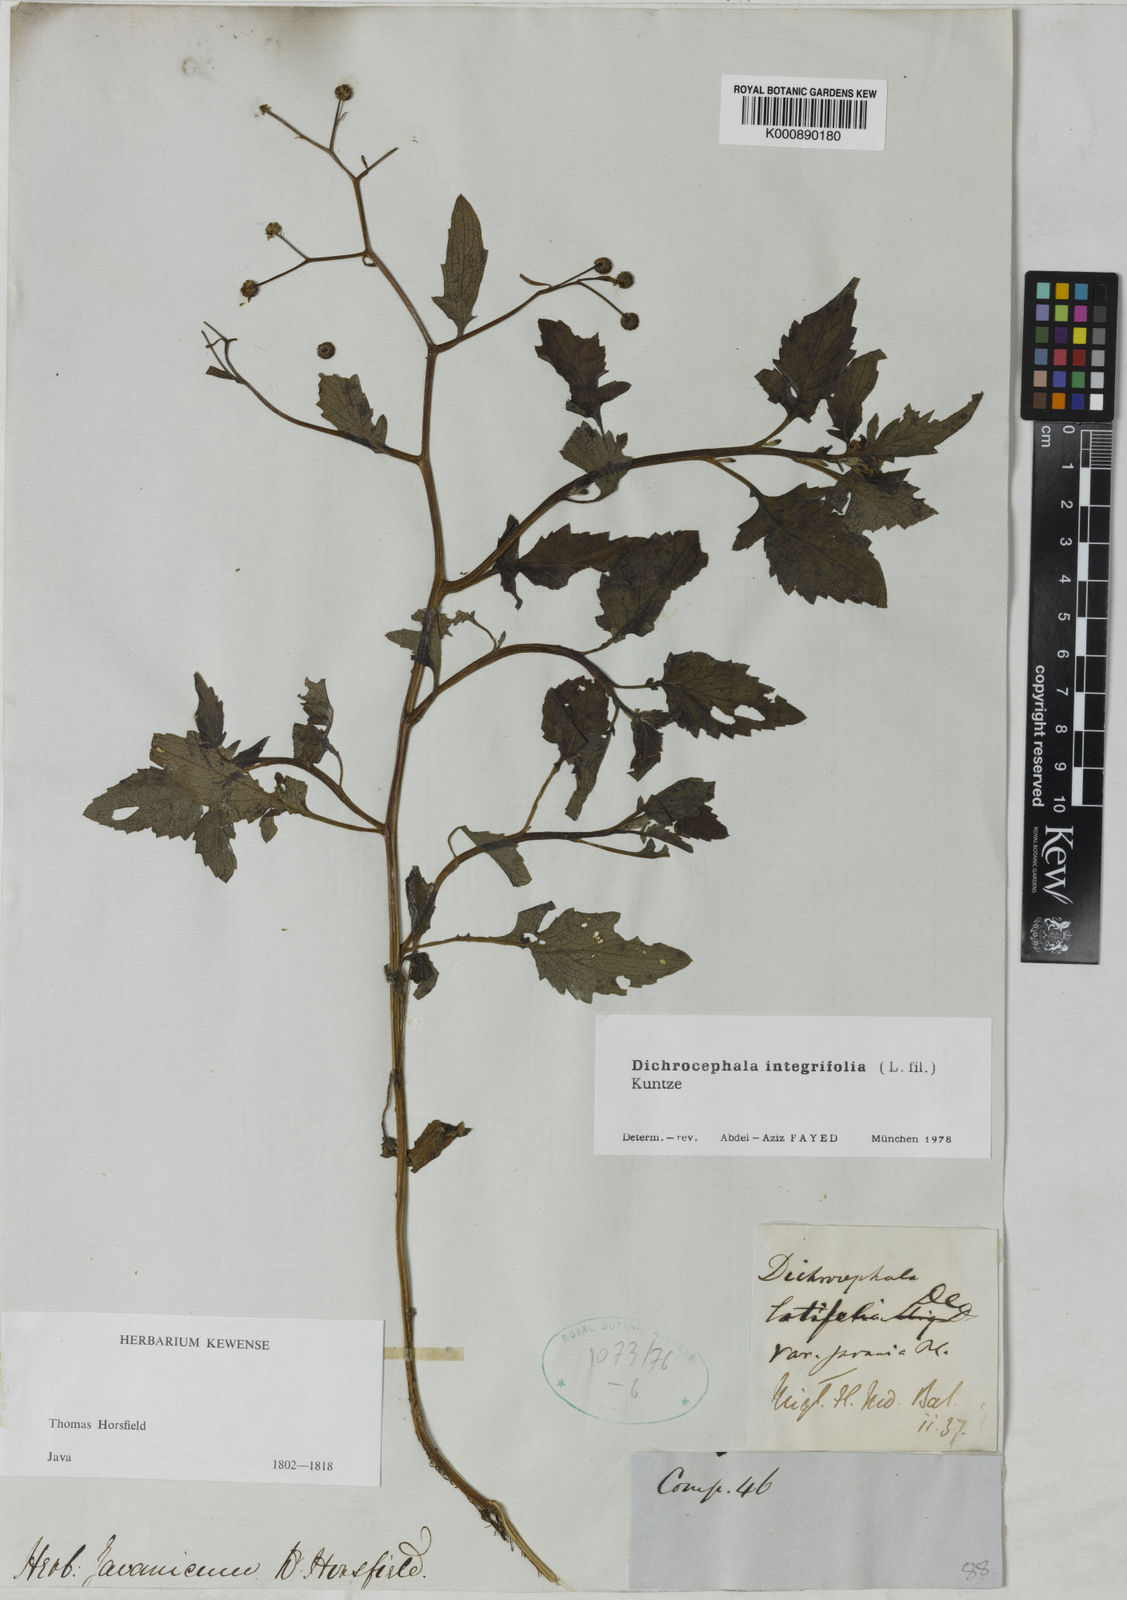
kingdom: Plantae
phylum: Tracheophyta
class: Magnoliopsida
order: Asterales
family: Asteraceae
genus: Dichrocephala
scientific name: Dichrocephala integrifolia
